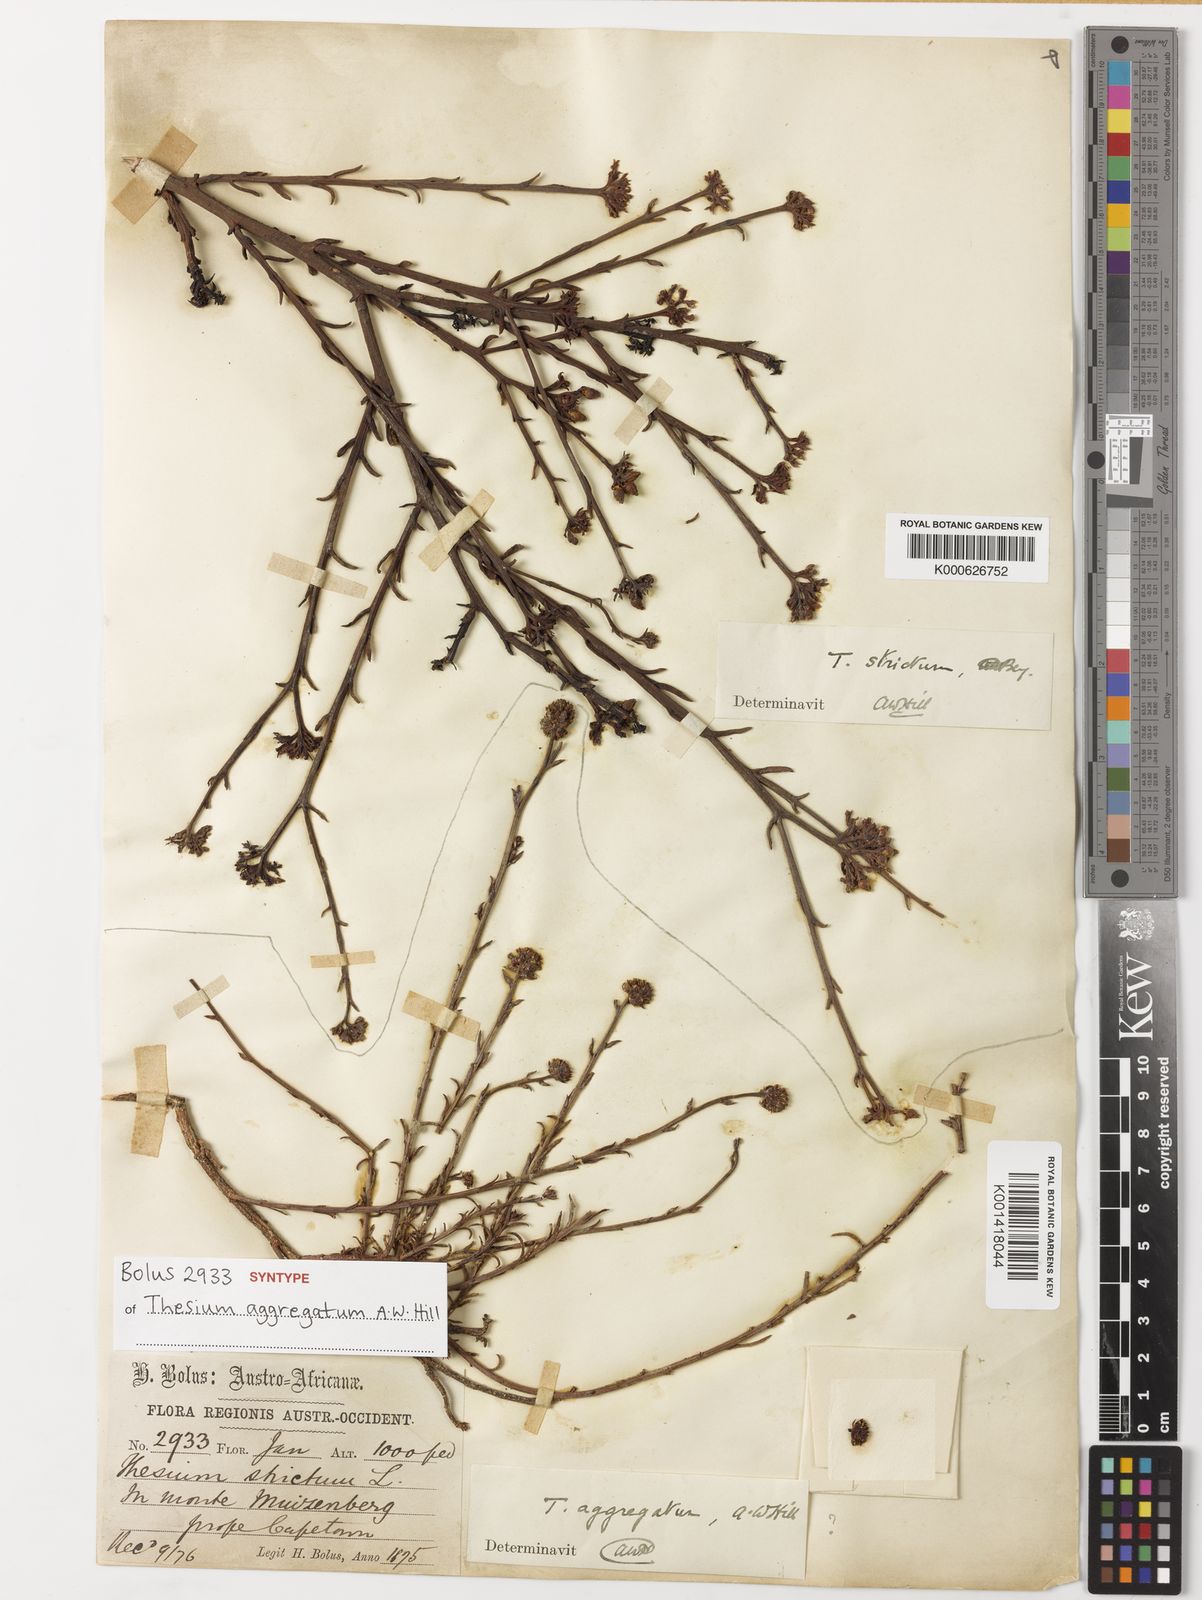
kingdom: Plantae
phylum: Tracheophyta
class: Magnoliopsida
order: Santalales
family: Thesiaceae
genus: Thesium
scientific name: Thesium strictum
